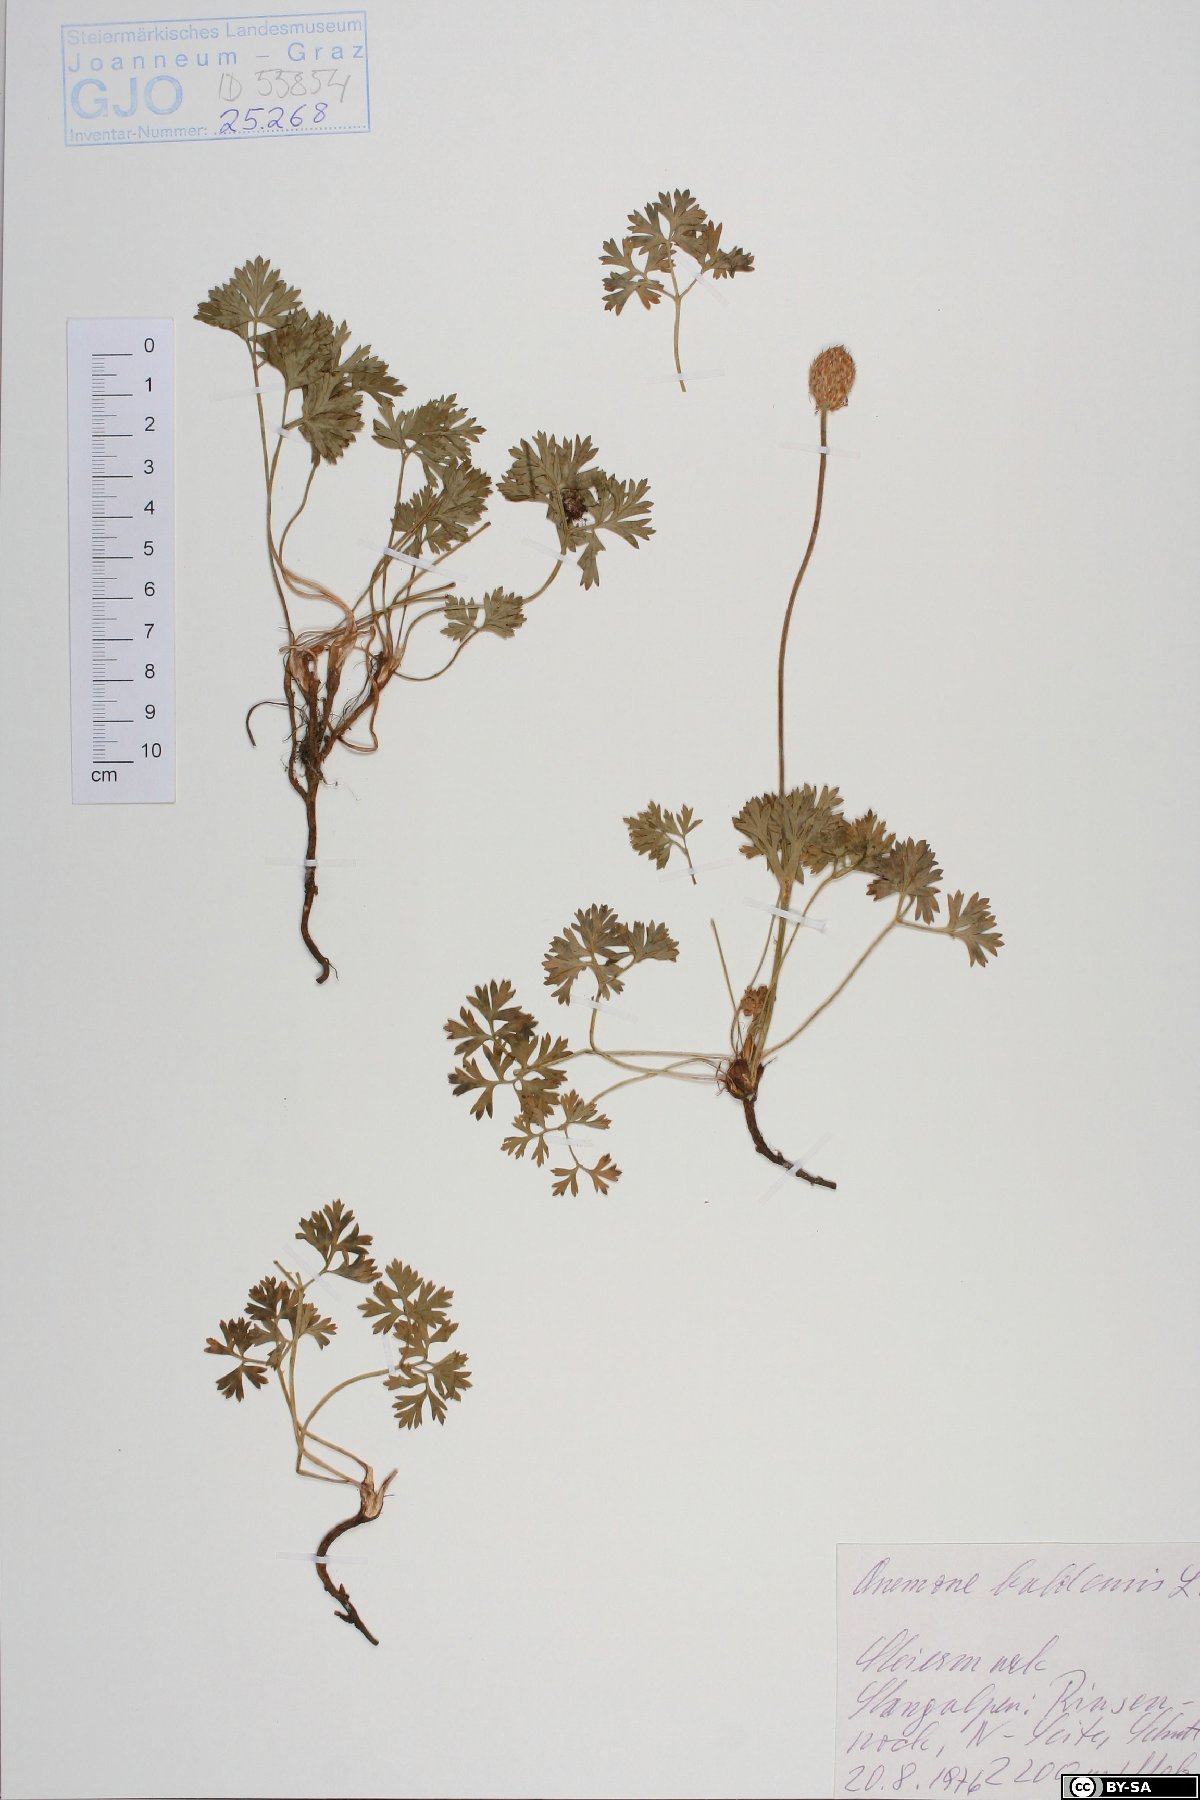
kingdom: Plantae
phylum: Tracheophyta
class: Magnoliopsida
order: Ranunculales
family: Ranunculaceae
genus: Anemone
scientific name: Anemone baldensis
